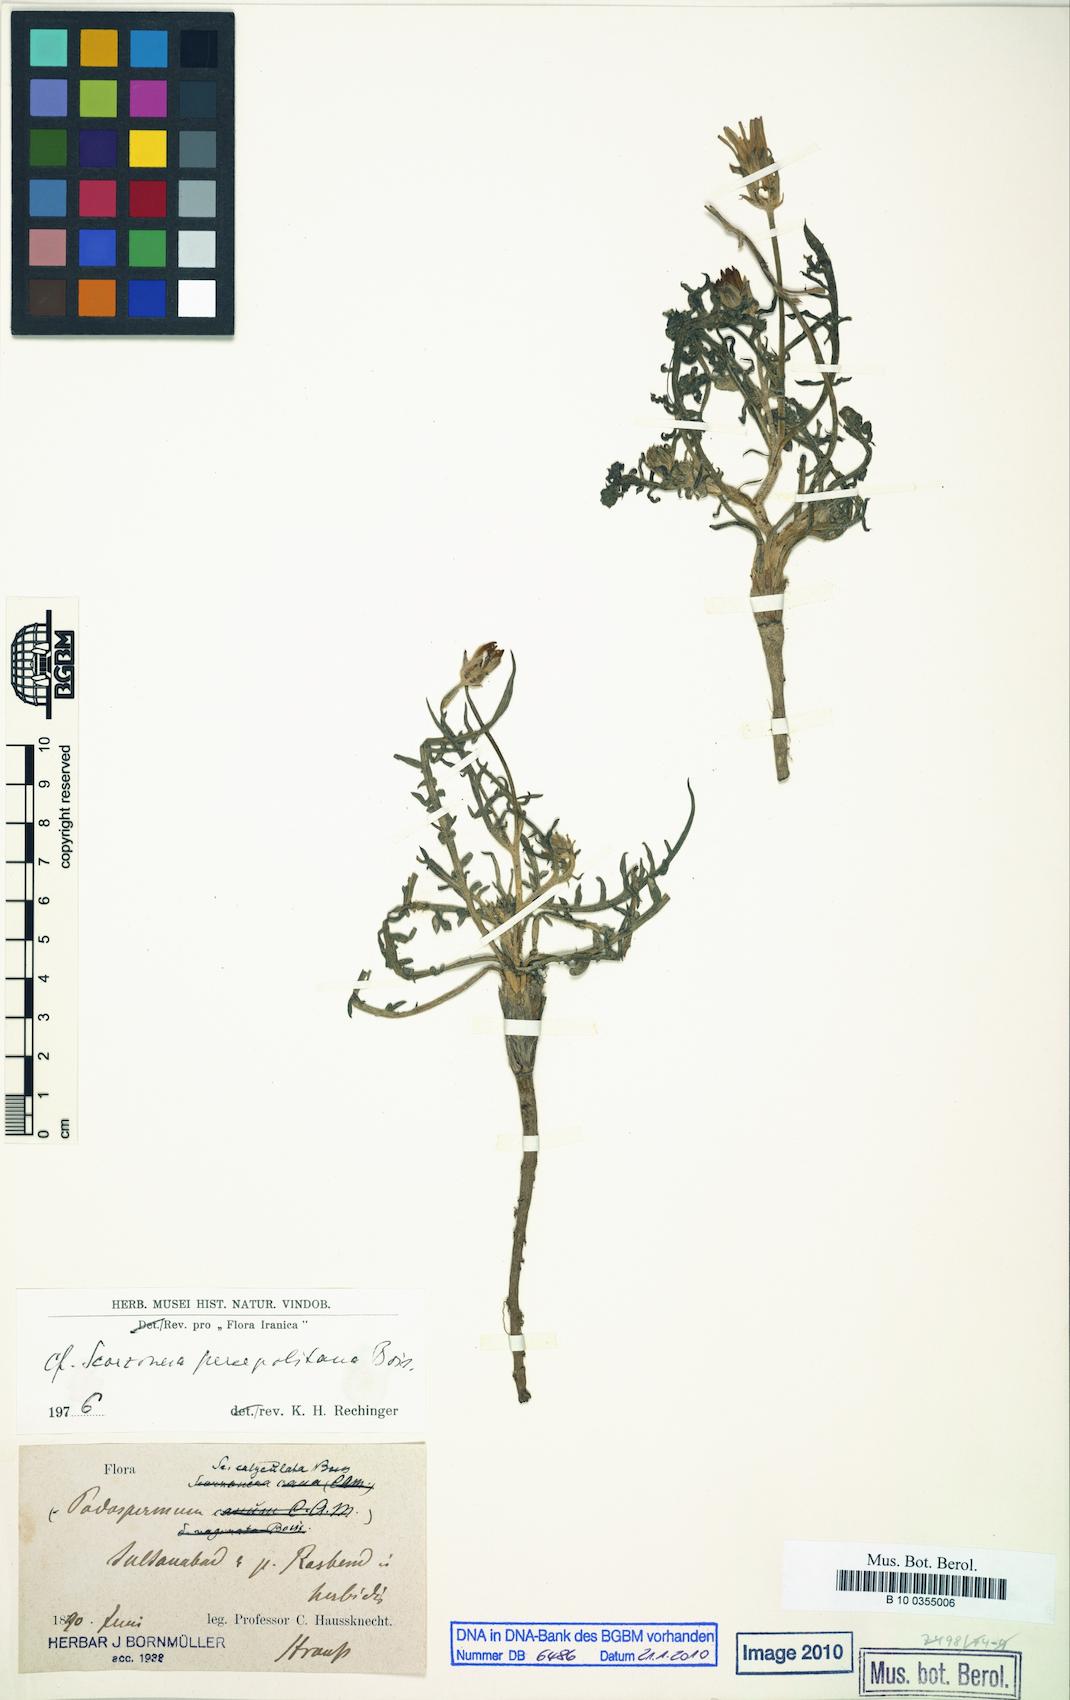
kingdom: Plantae
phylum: Tracheophyta
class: Magnoliopsida
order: Asterales
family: Asteraceae
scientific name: Asteraceae
